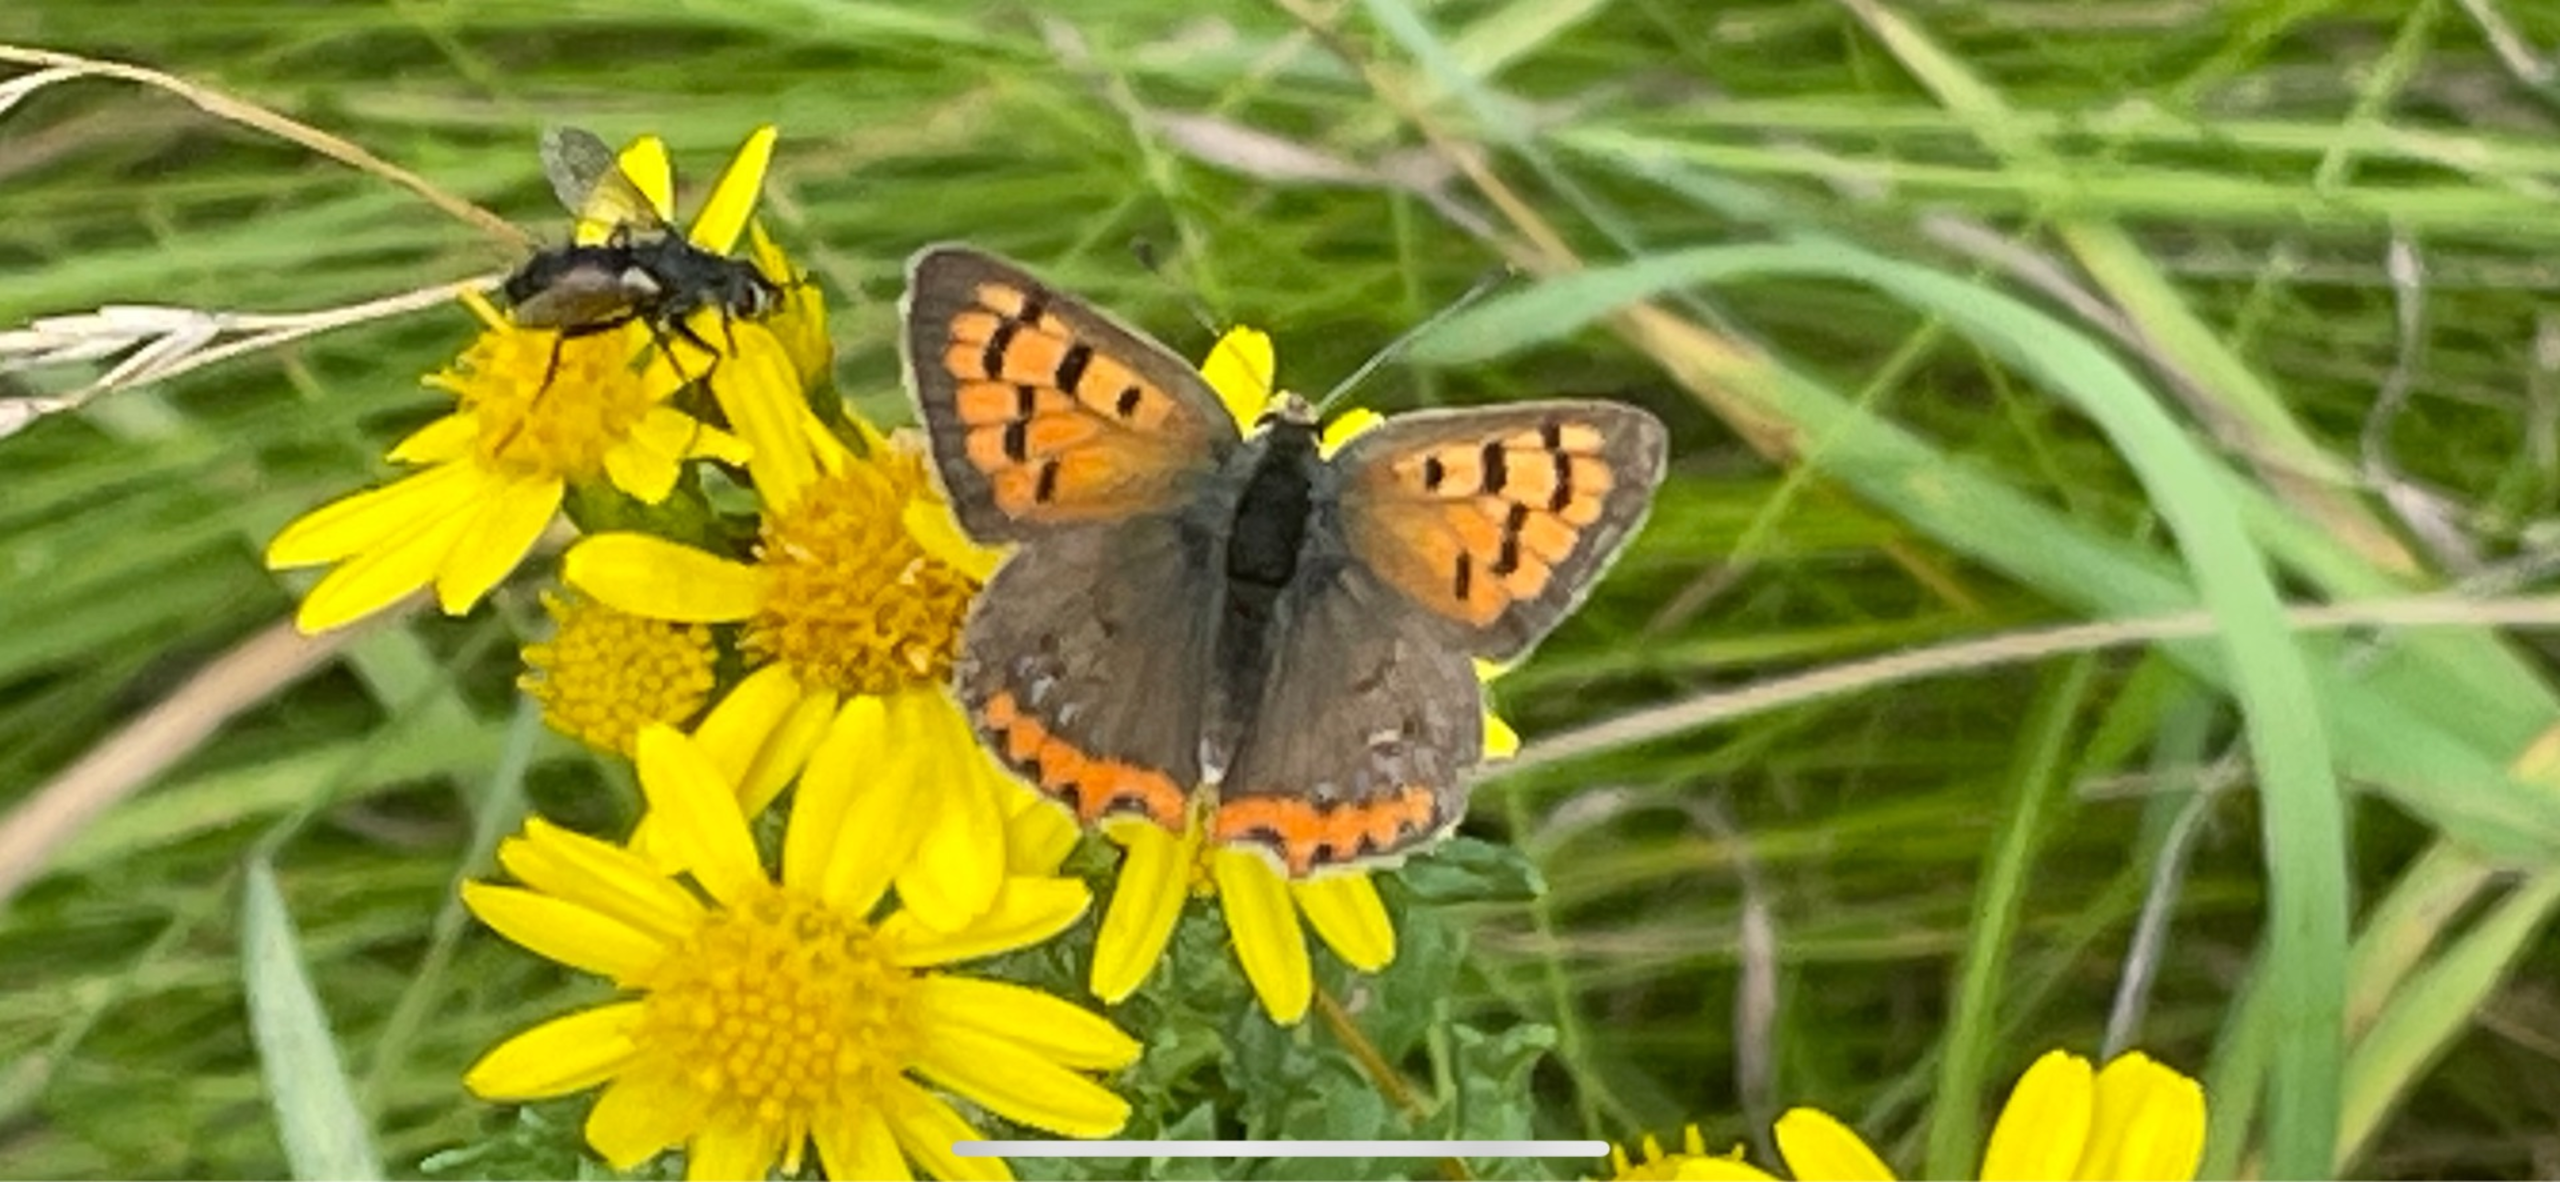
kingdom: Animalia
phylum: Arthropoda
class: Insecta
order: Lepidoptera
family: Lycaenidae
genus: Lycaena
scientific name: Lycaena phlaeas
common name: Lille ildfugl
